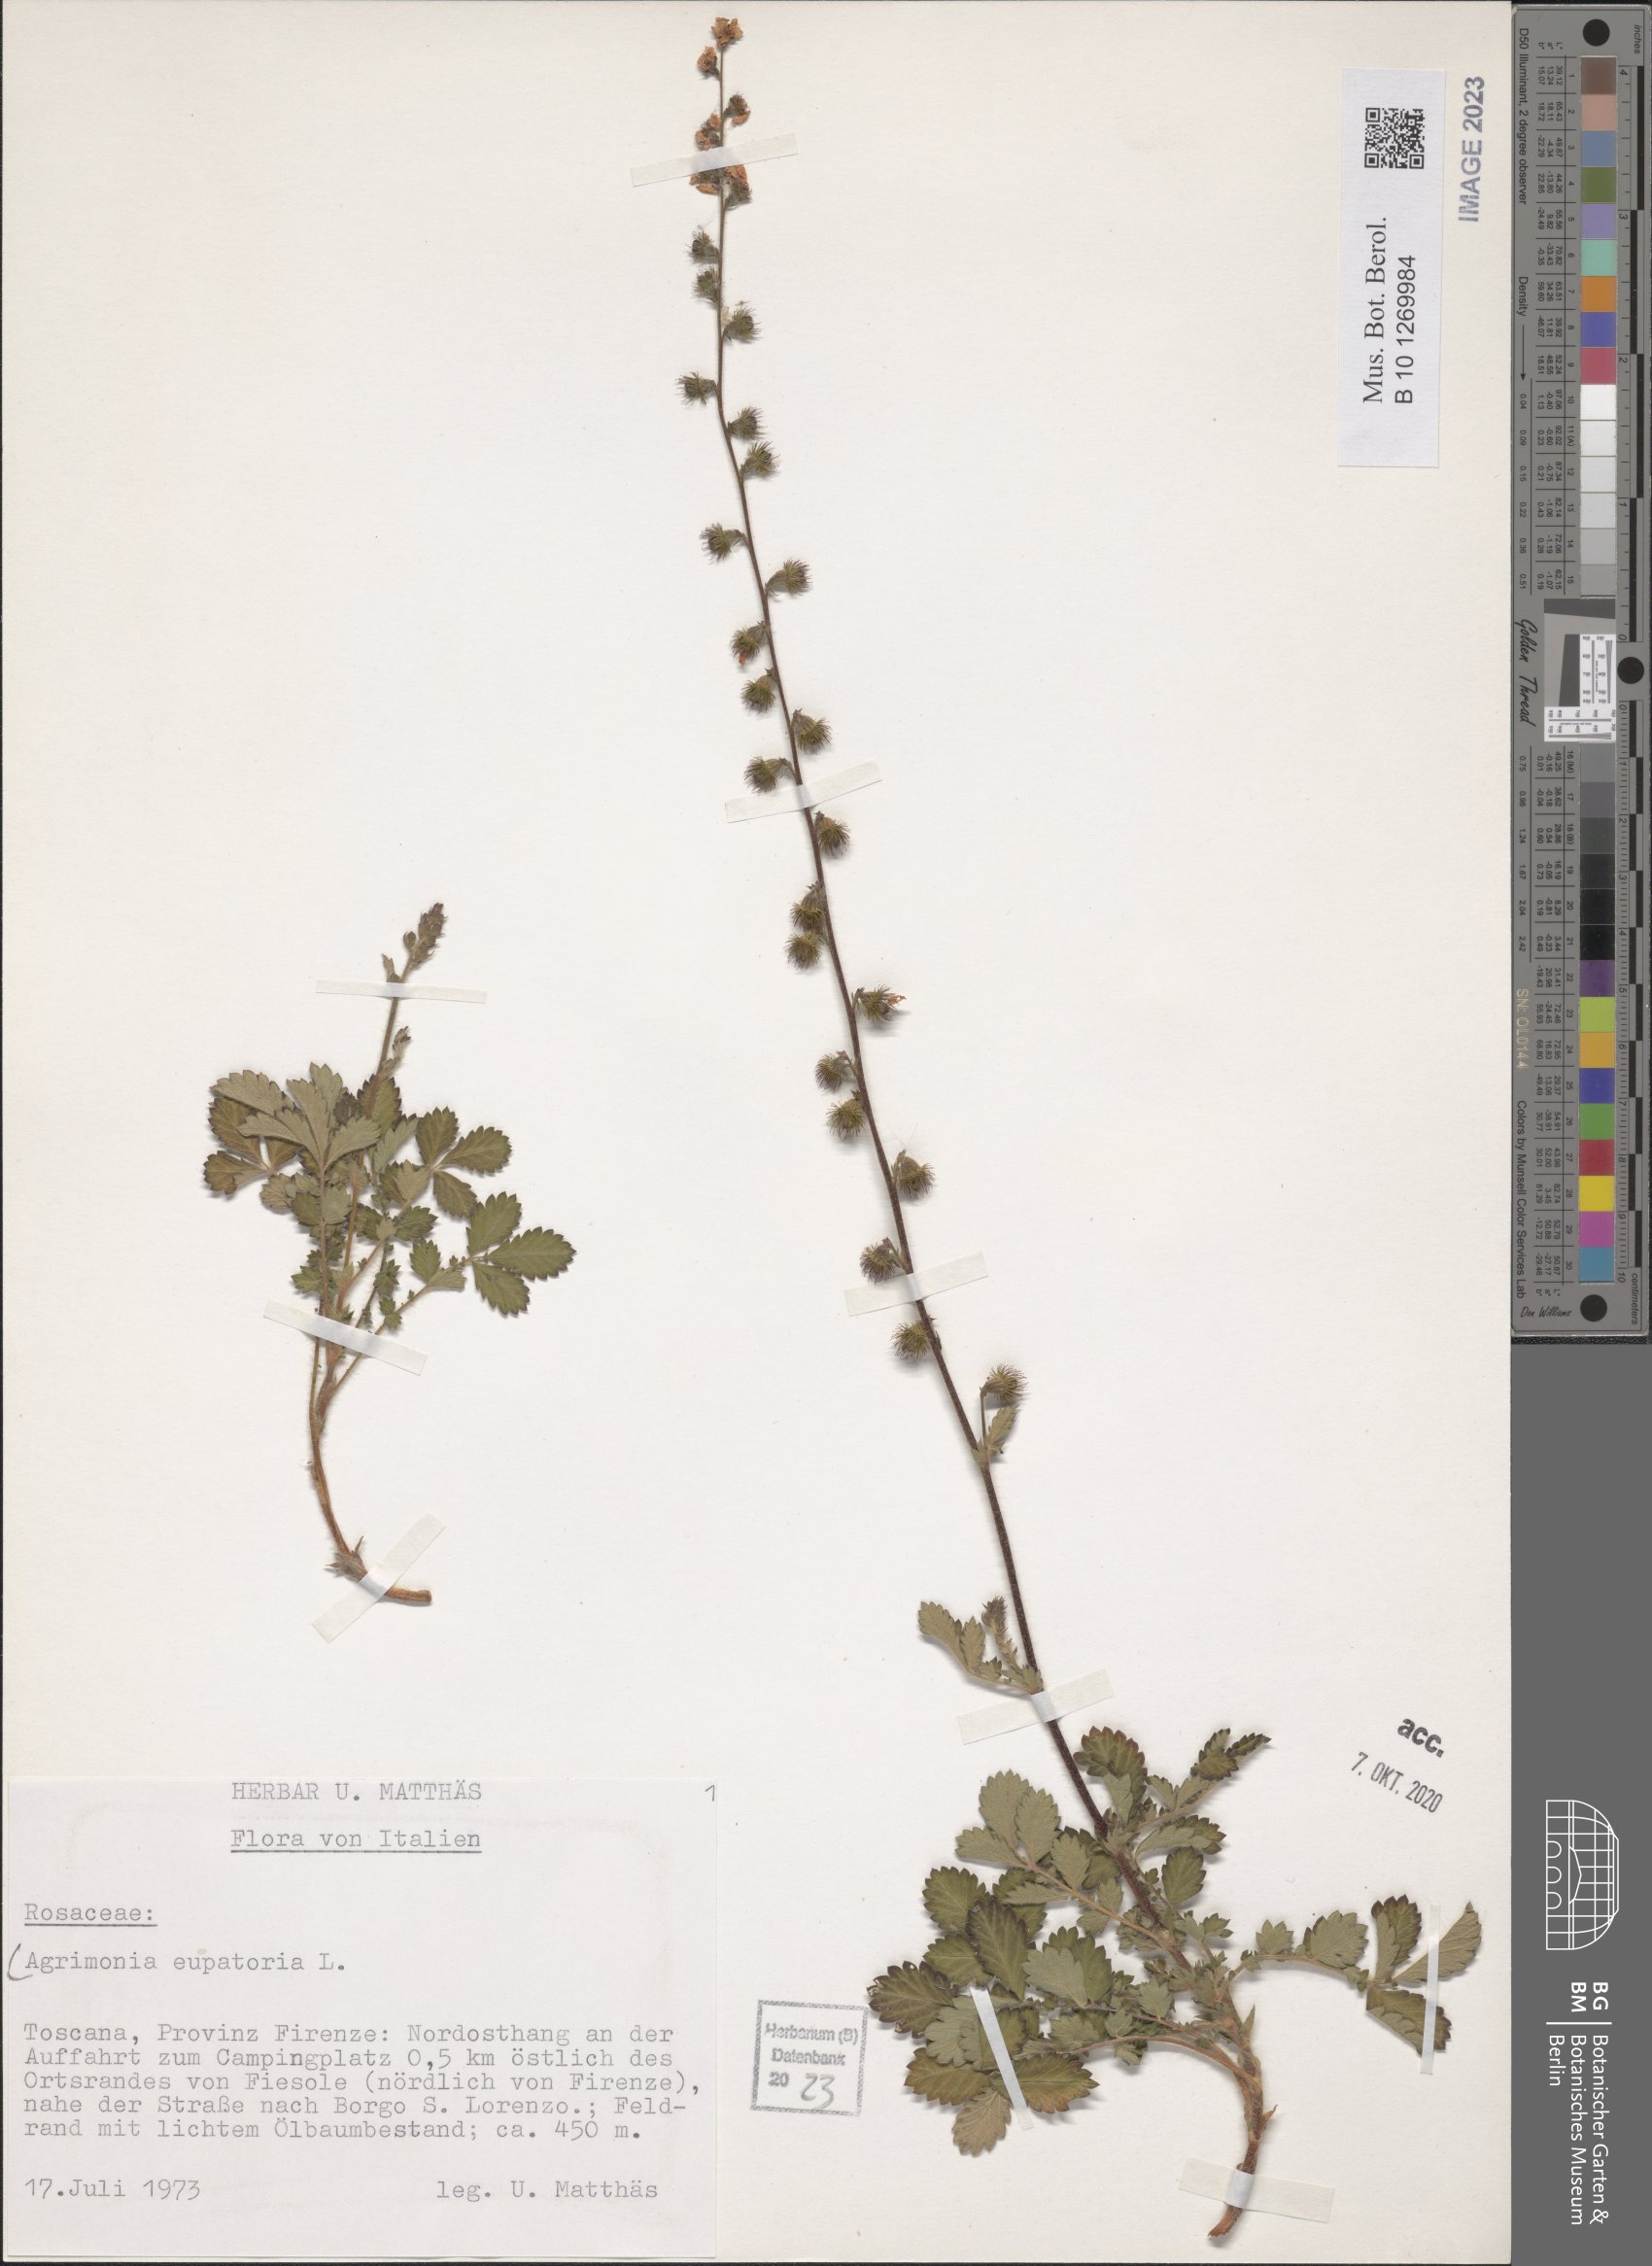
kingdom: Plantae
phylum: Tracheophyta
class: Magnoliopsida
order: Rosales
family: Rosaceae
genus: Agrimonia
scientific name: Agrimonia eupatoria
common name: Agrimony
